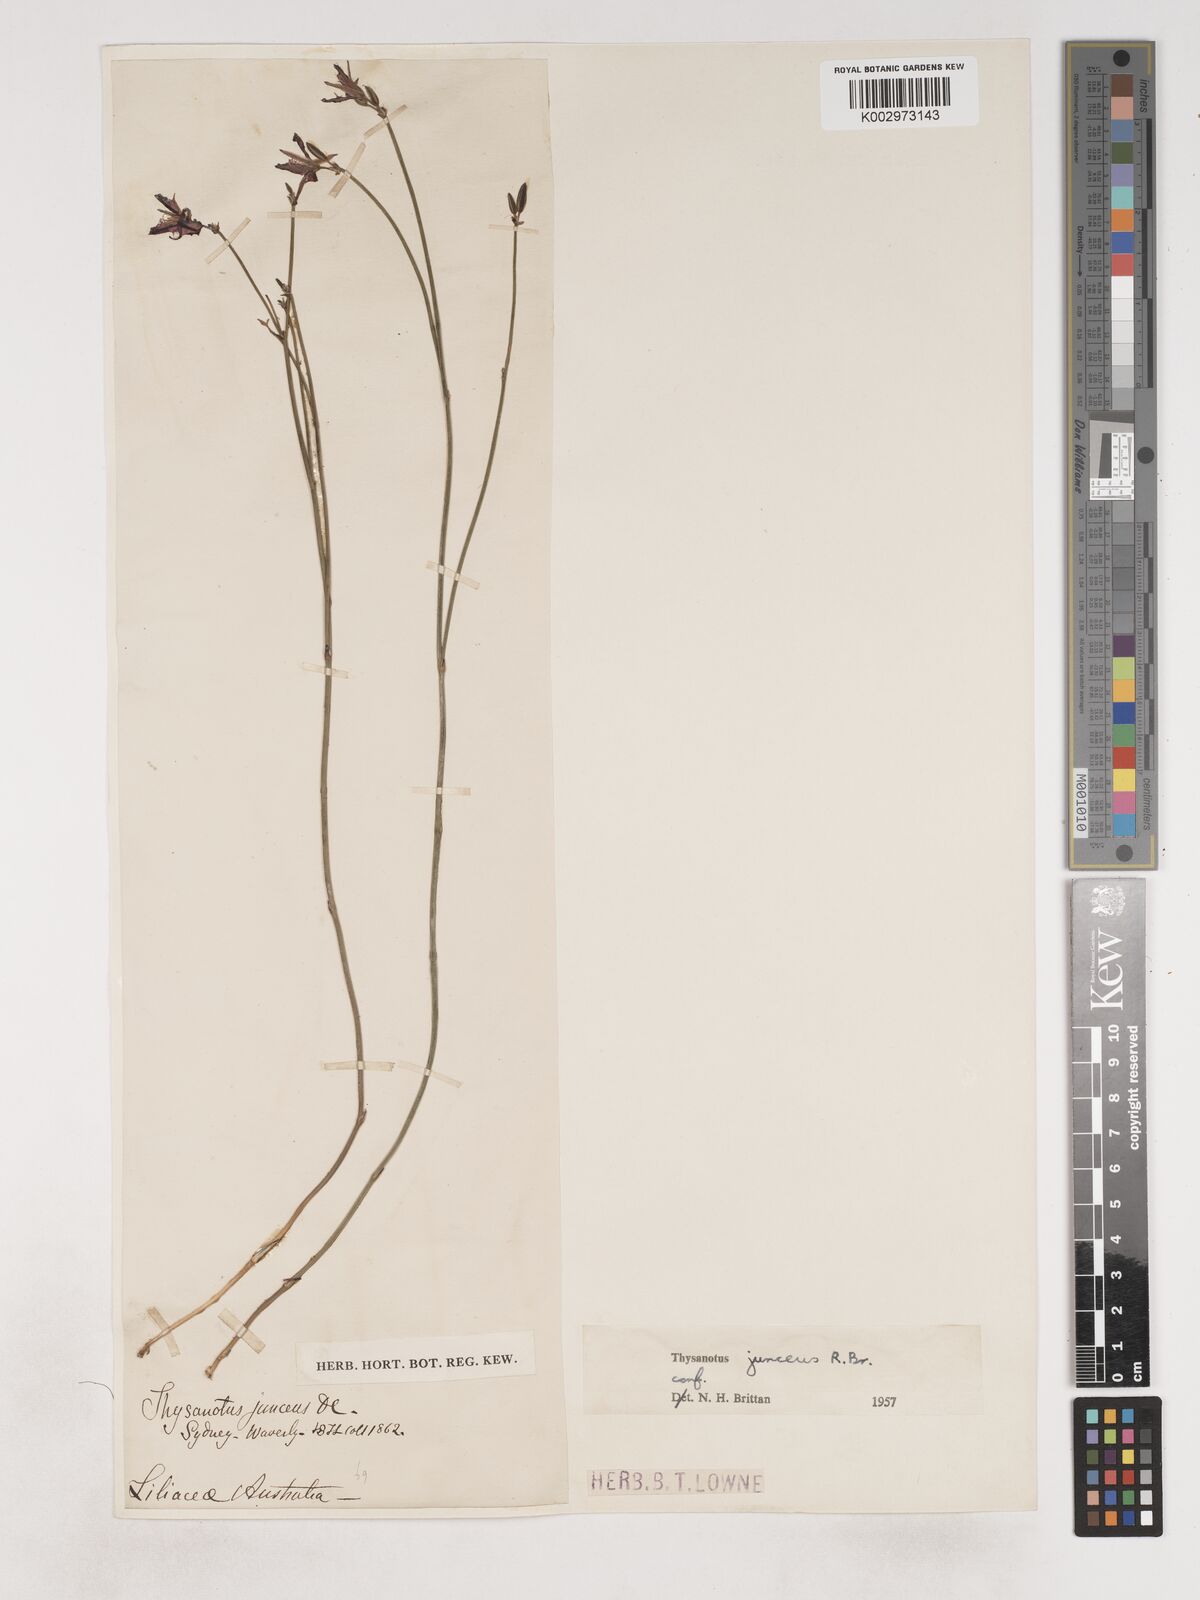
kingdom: Plantae
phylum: Tracheophyta
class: Liliopsida
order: Asparagales
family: Asparagaceae
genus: Thysanotus
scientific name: Thysanotus juncifolius
